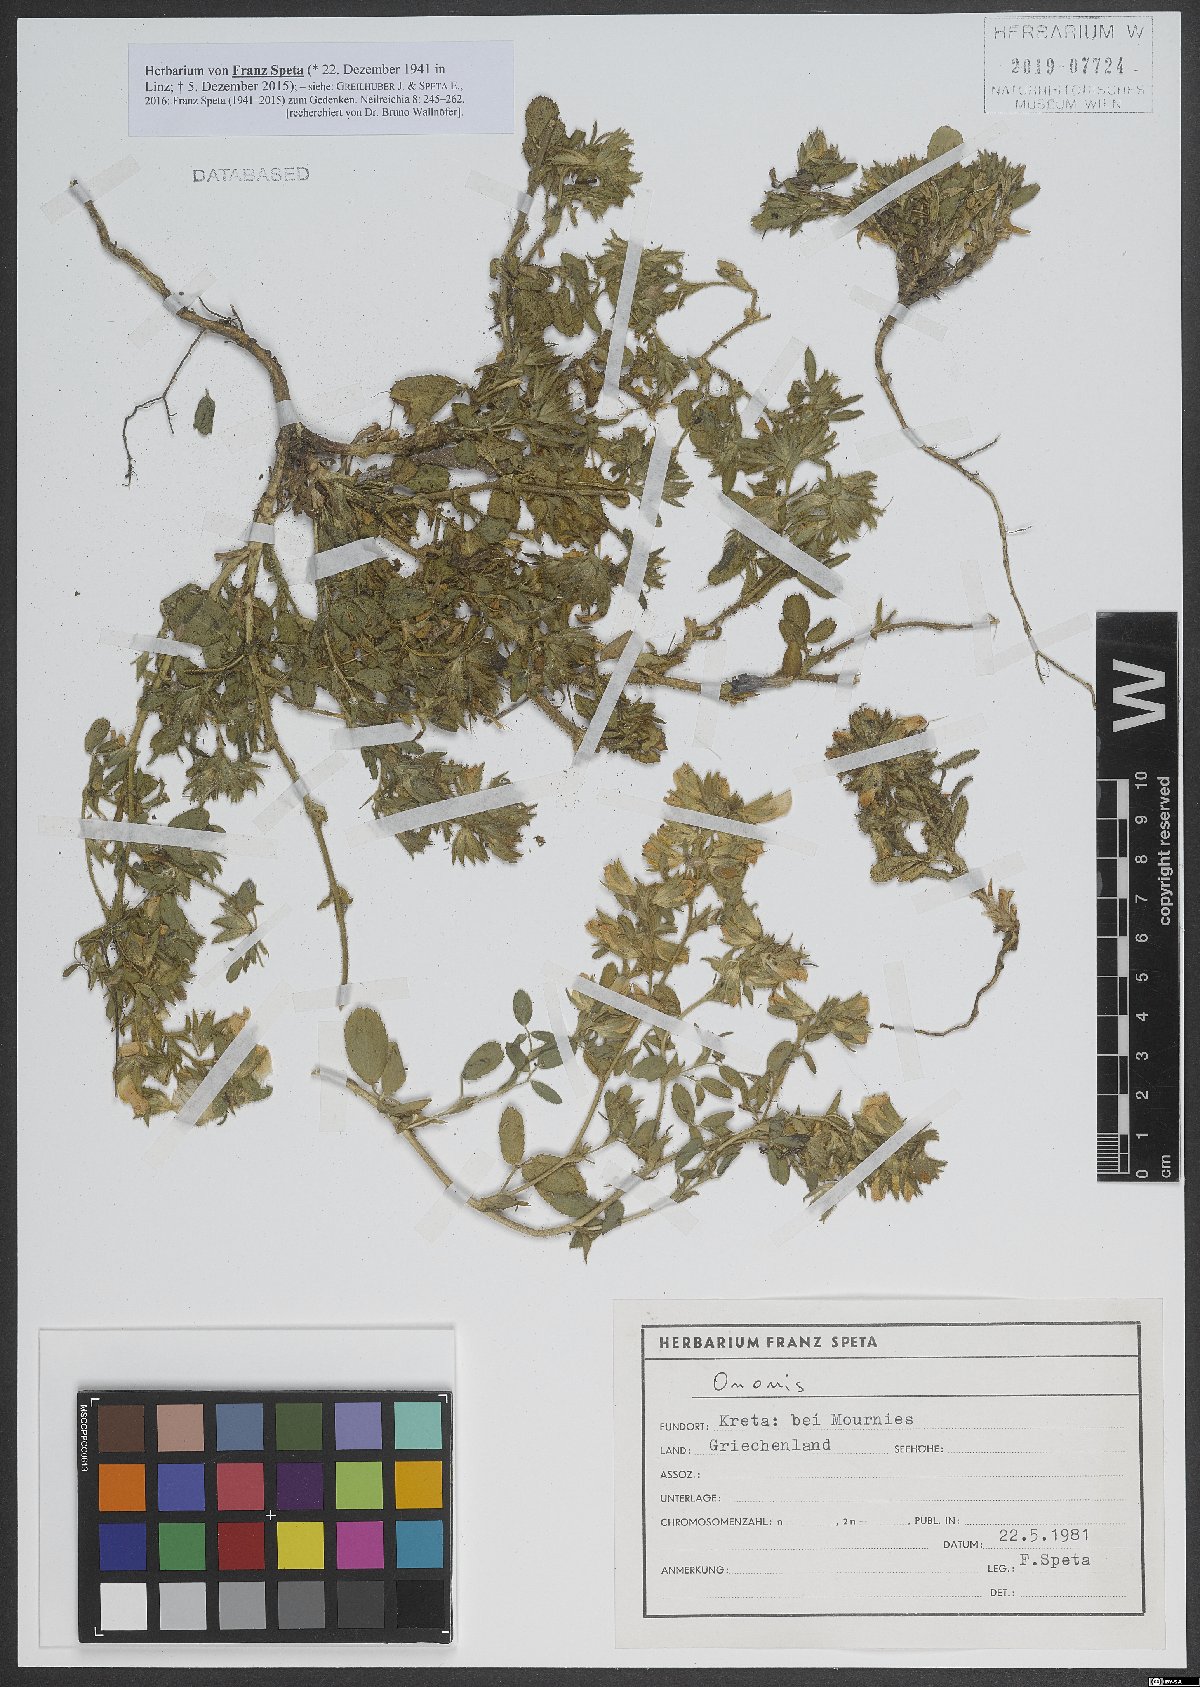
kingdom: Plantae
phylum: Tracheophyta
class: Magnoliopsida
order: Fabales
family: Fabaceae
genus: Ononis
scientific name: Ononis
